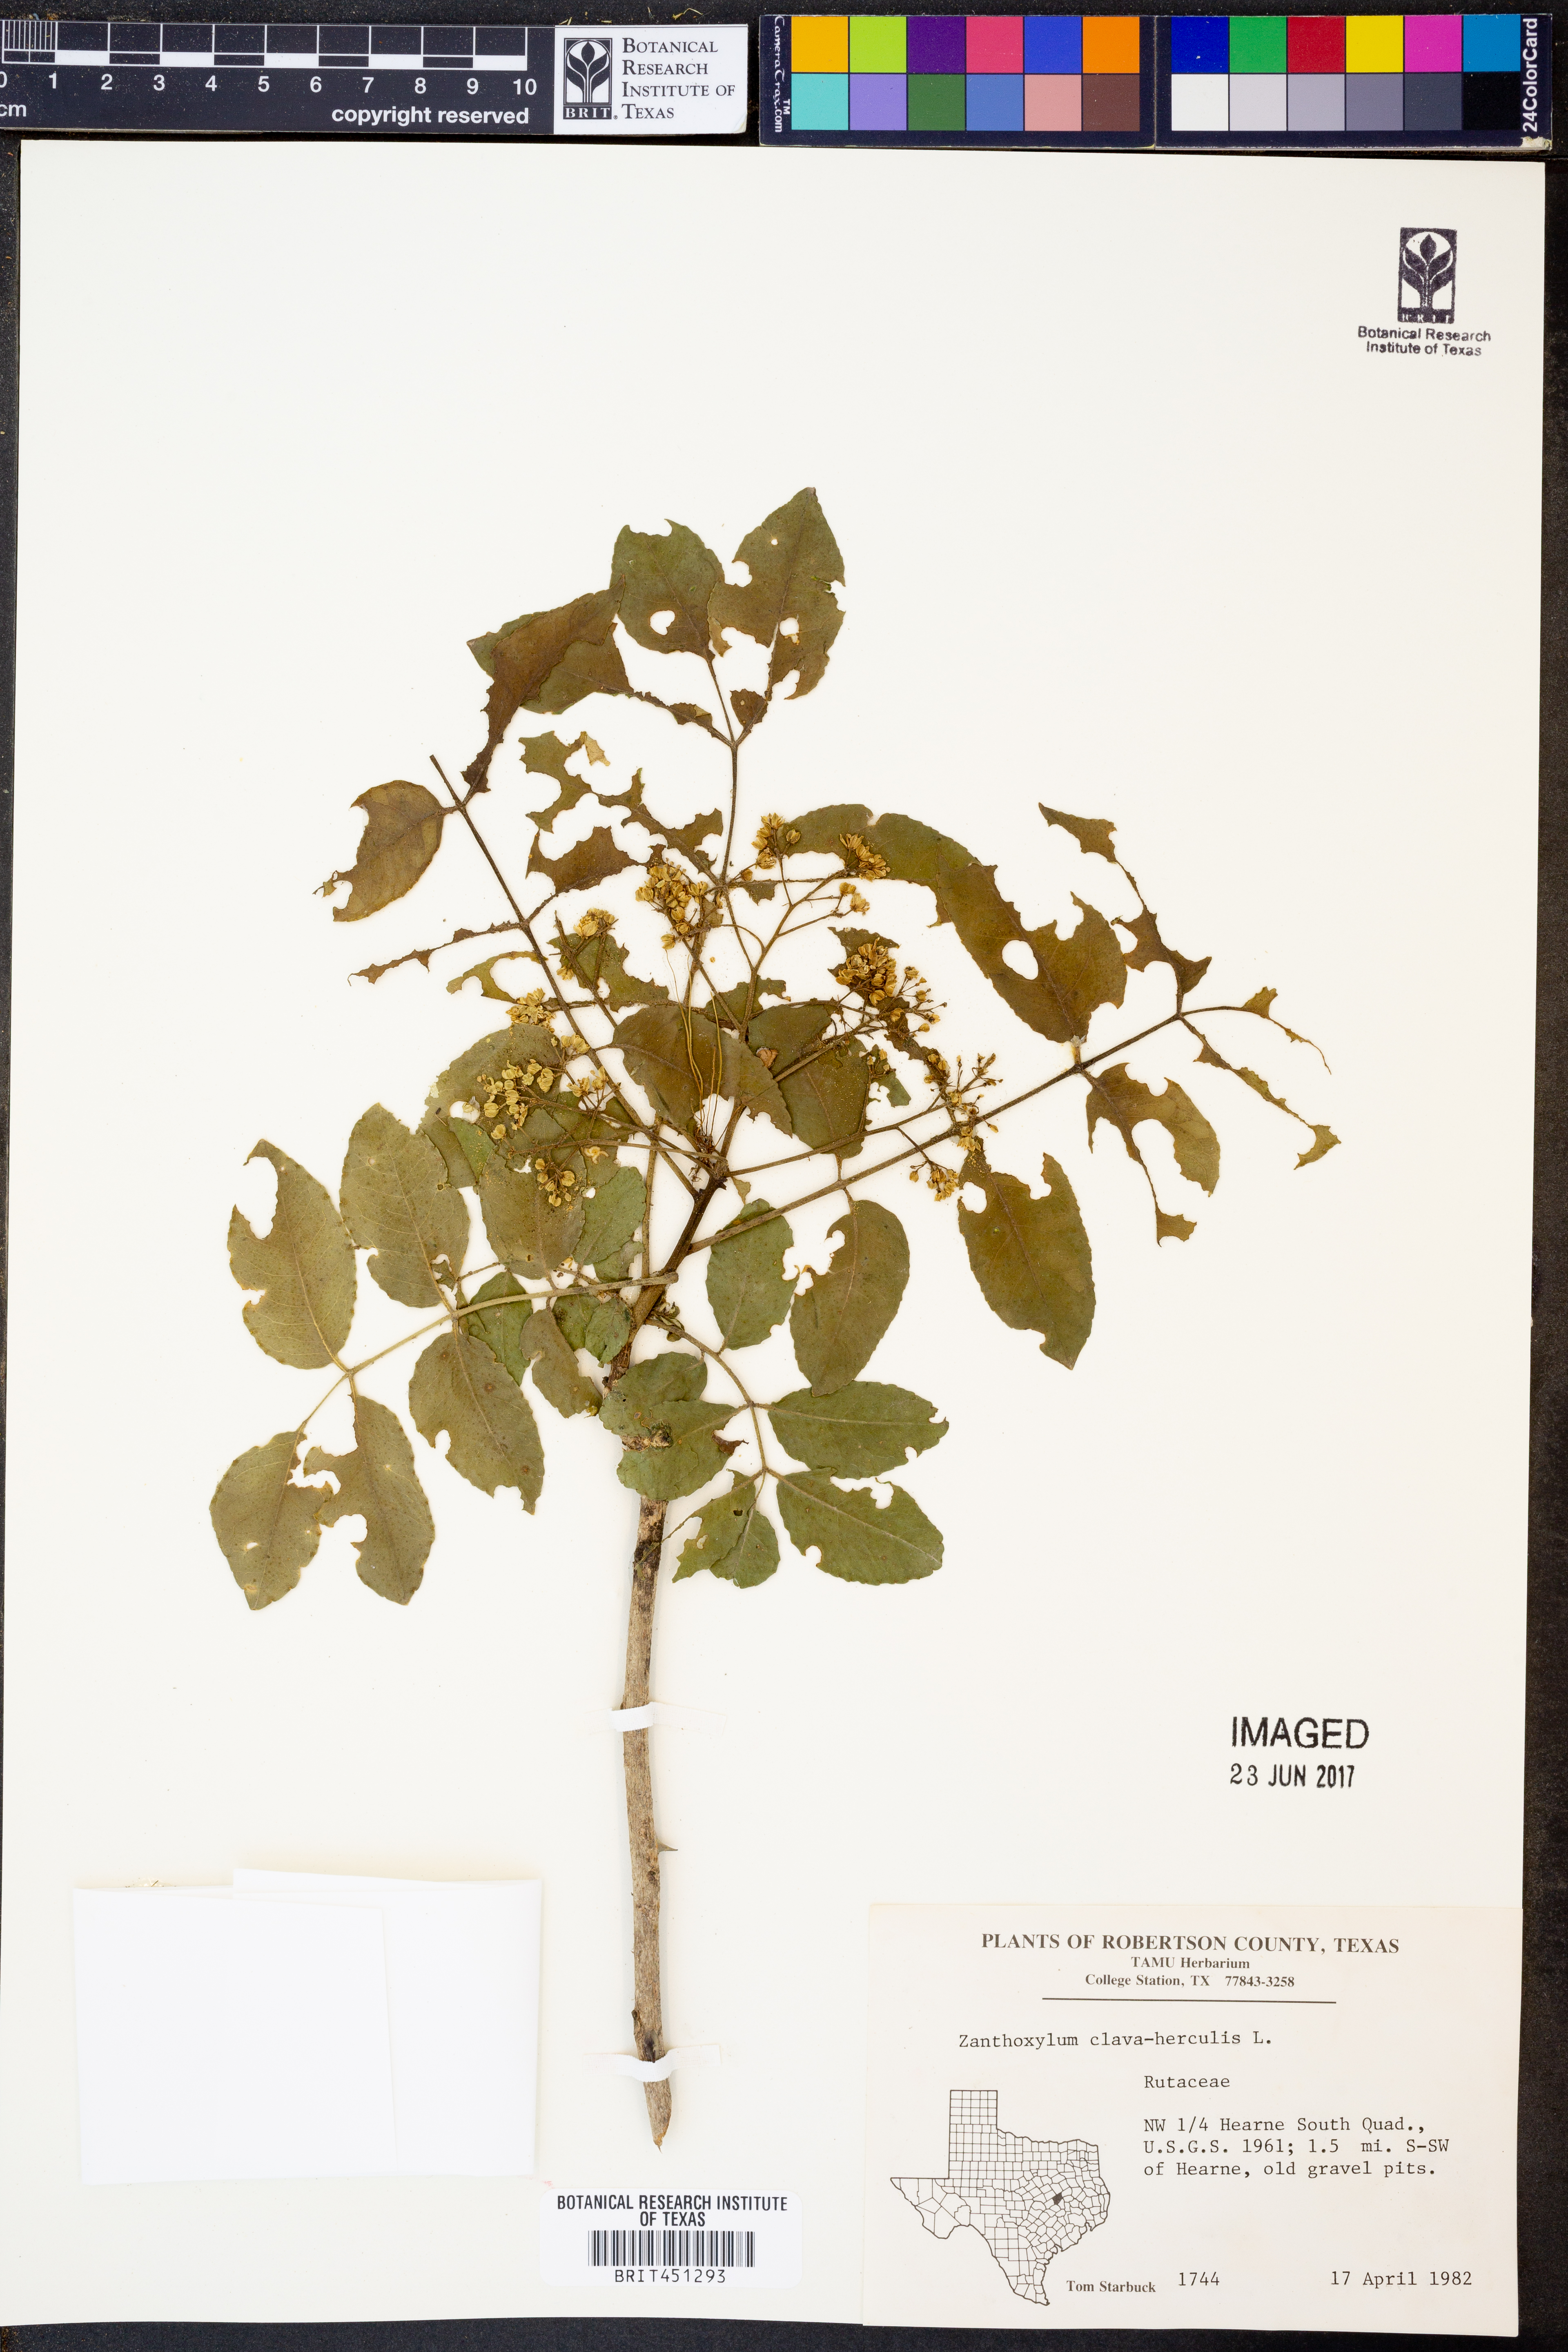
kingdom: Plantae
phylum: Tracheophyta
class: Magnoliopsida
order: Sapindales
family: Rutaceae
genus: Zanthoxylum
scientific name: Zanthoxylum avicennae
